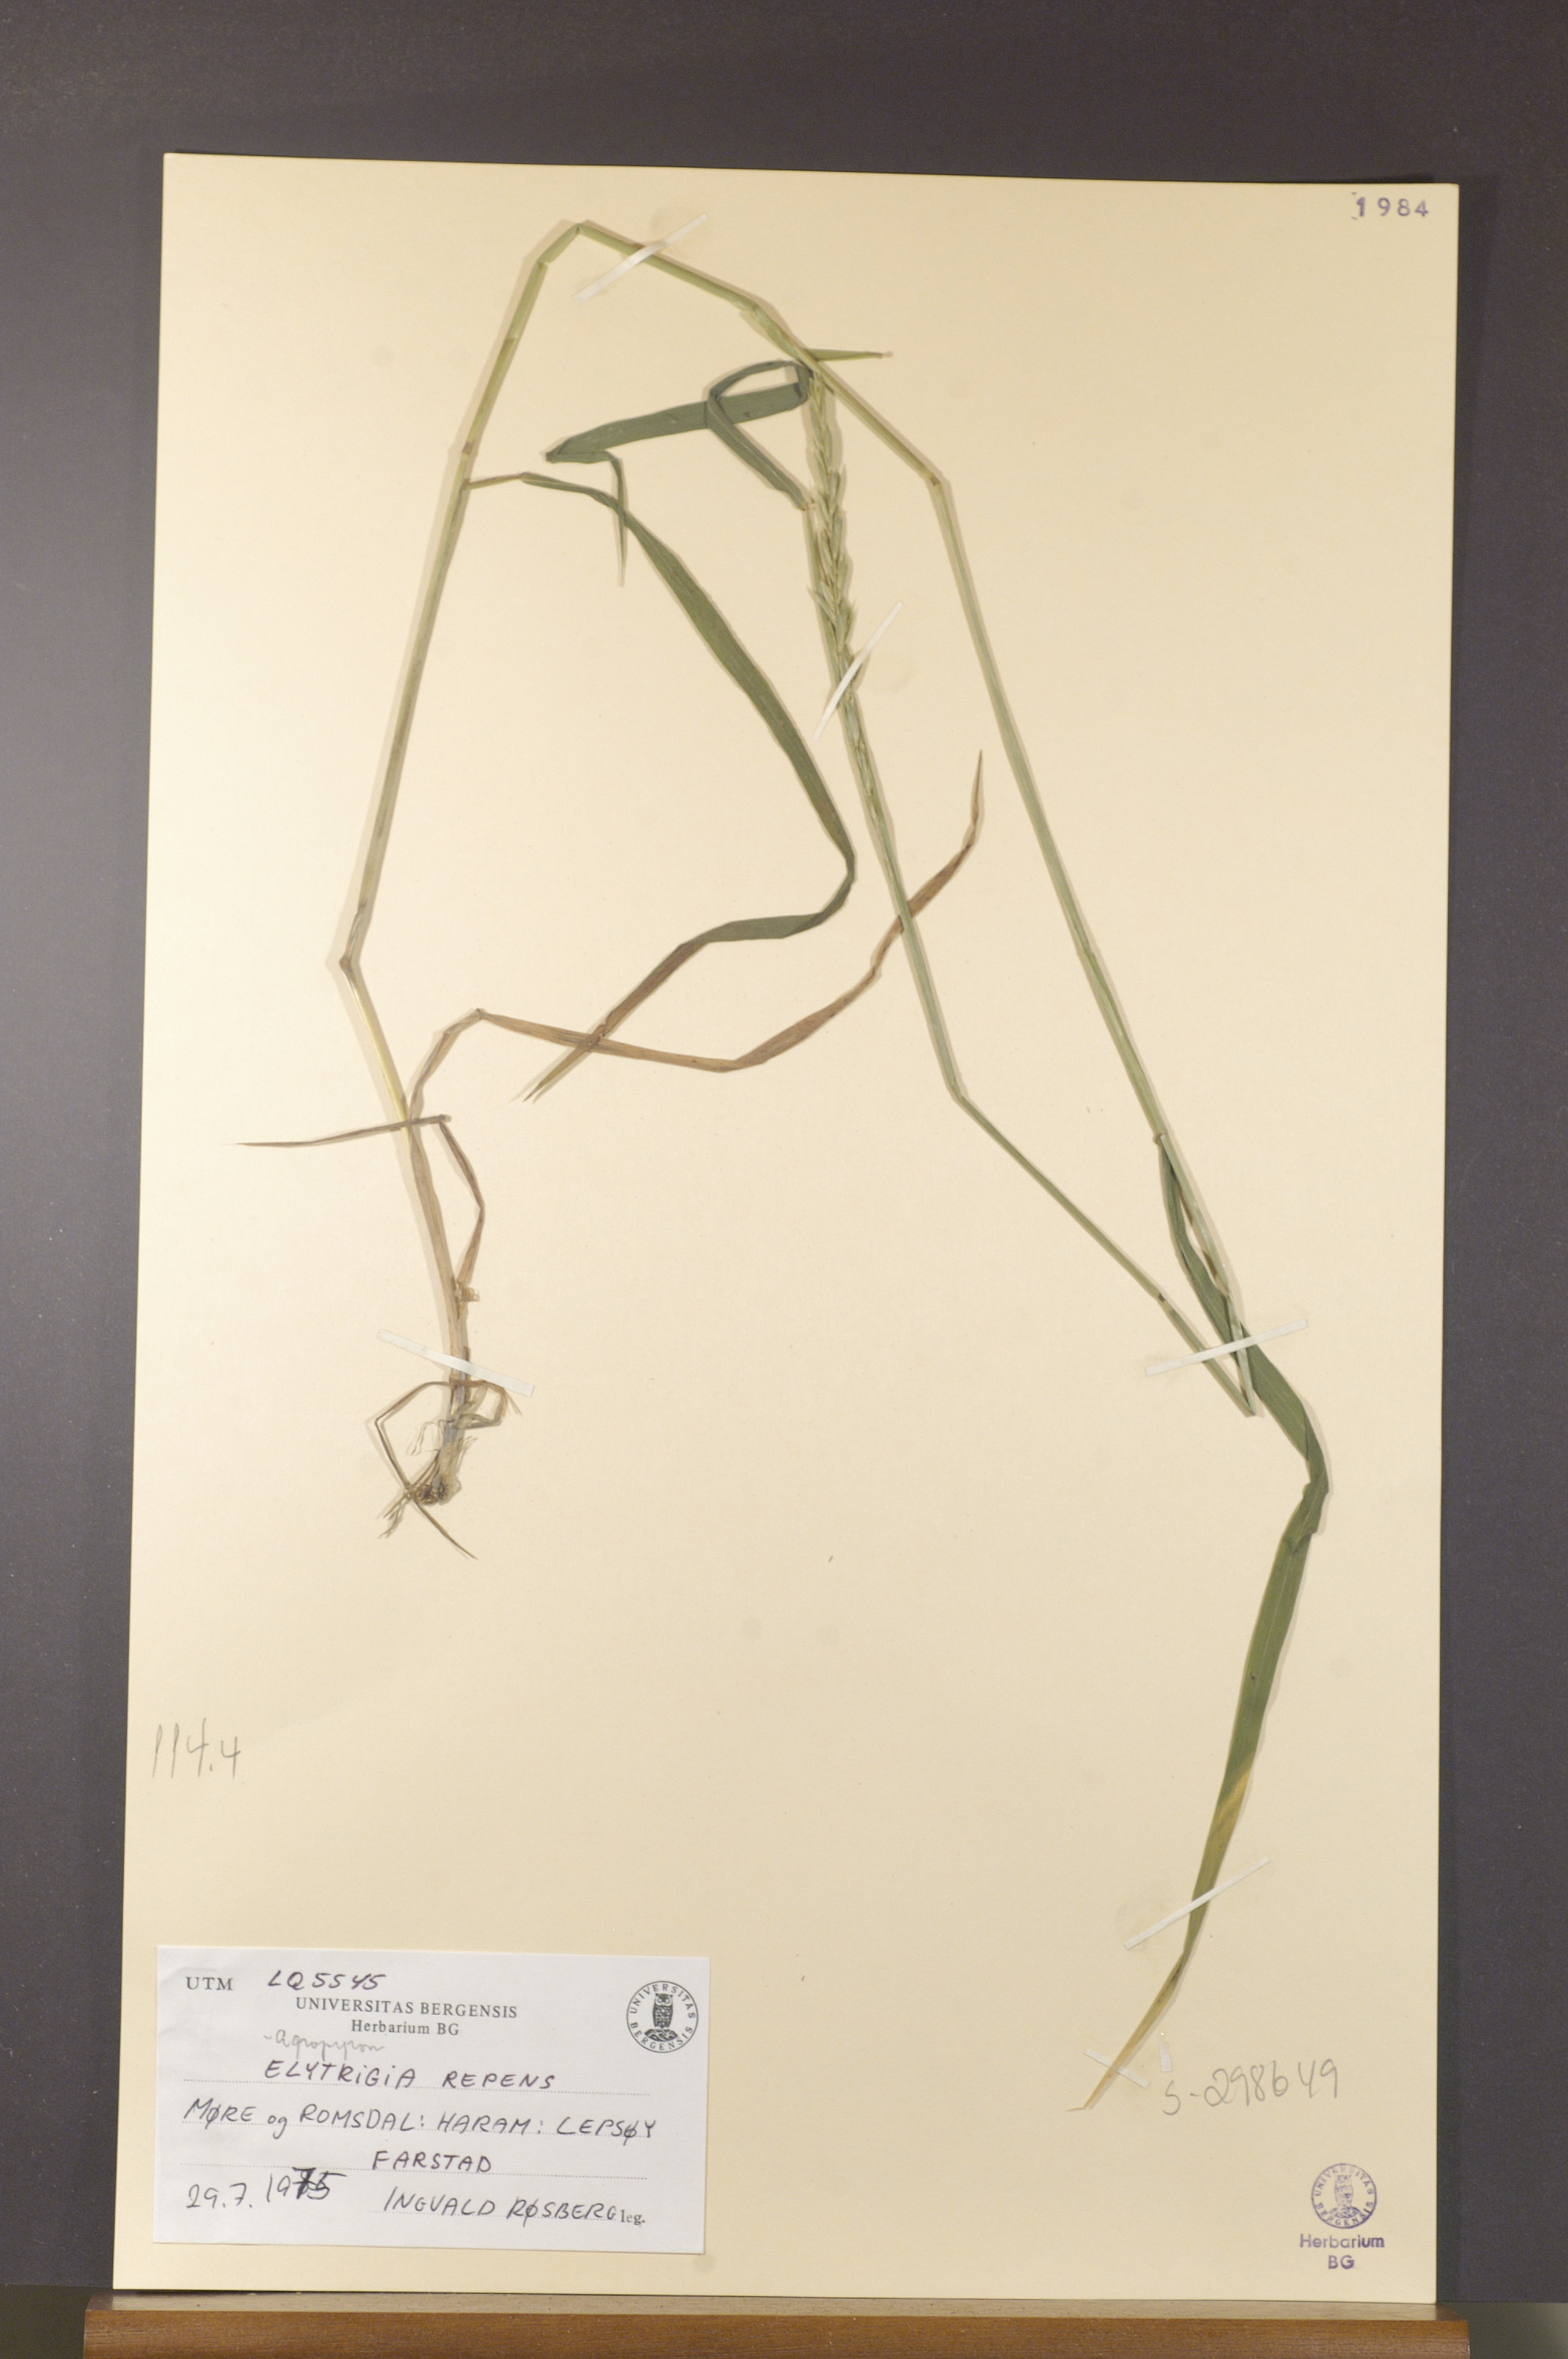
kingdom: Plantae
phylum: Tracheophyta
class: Liliopsida
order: Poales
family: Poaceae
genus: Elymus
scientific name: Elymus repens
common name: Quackgrass
